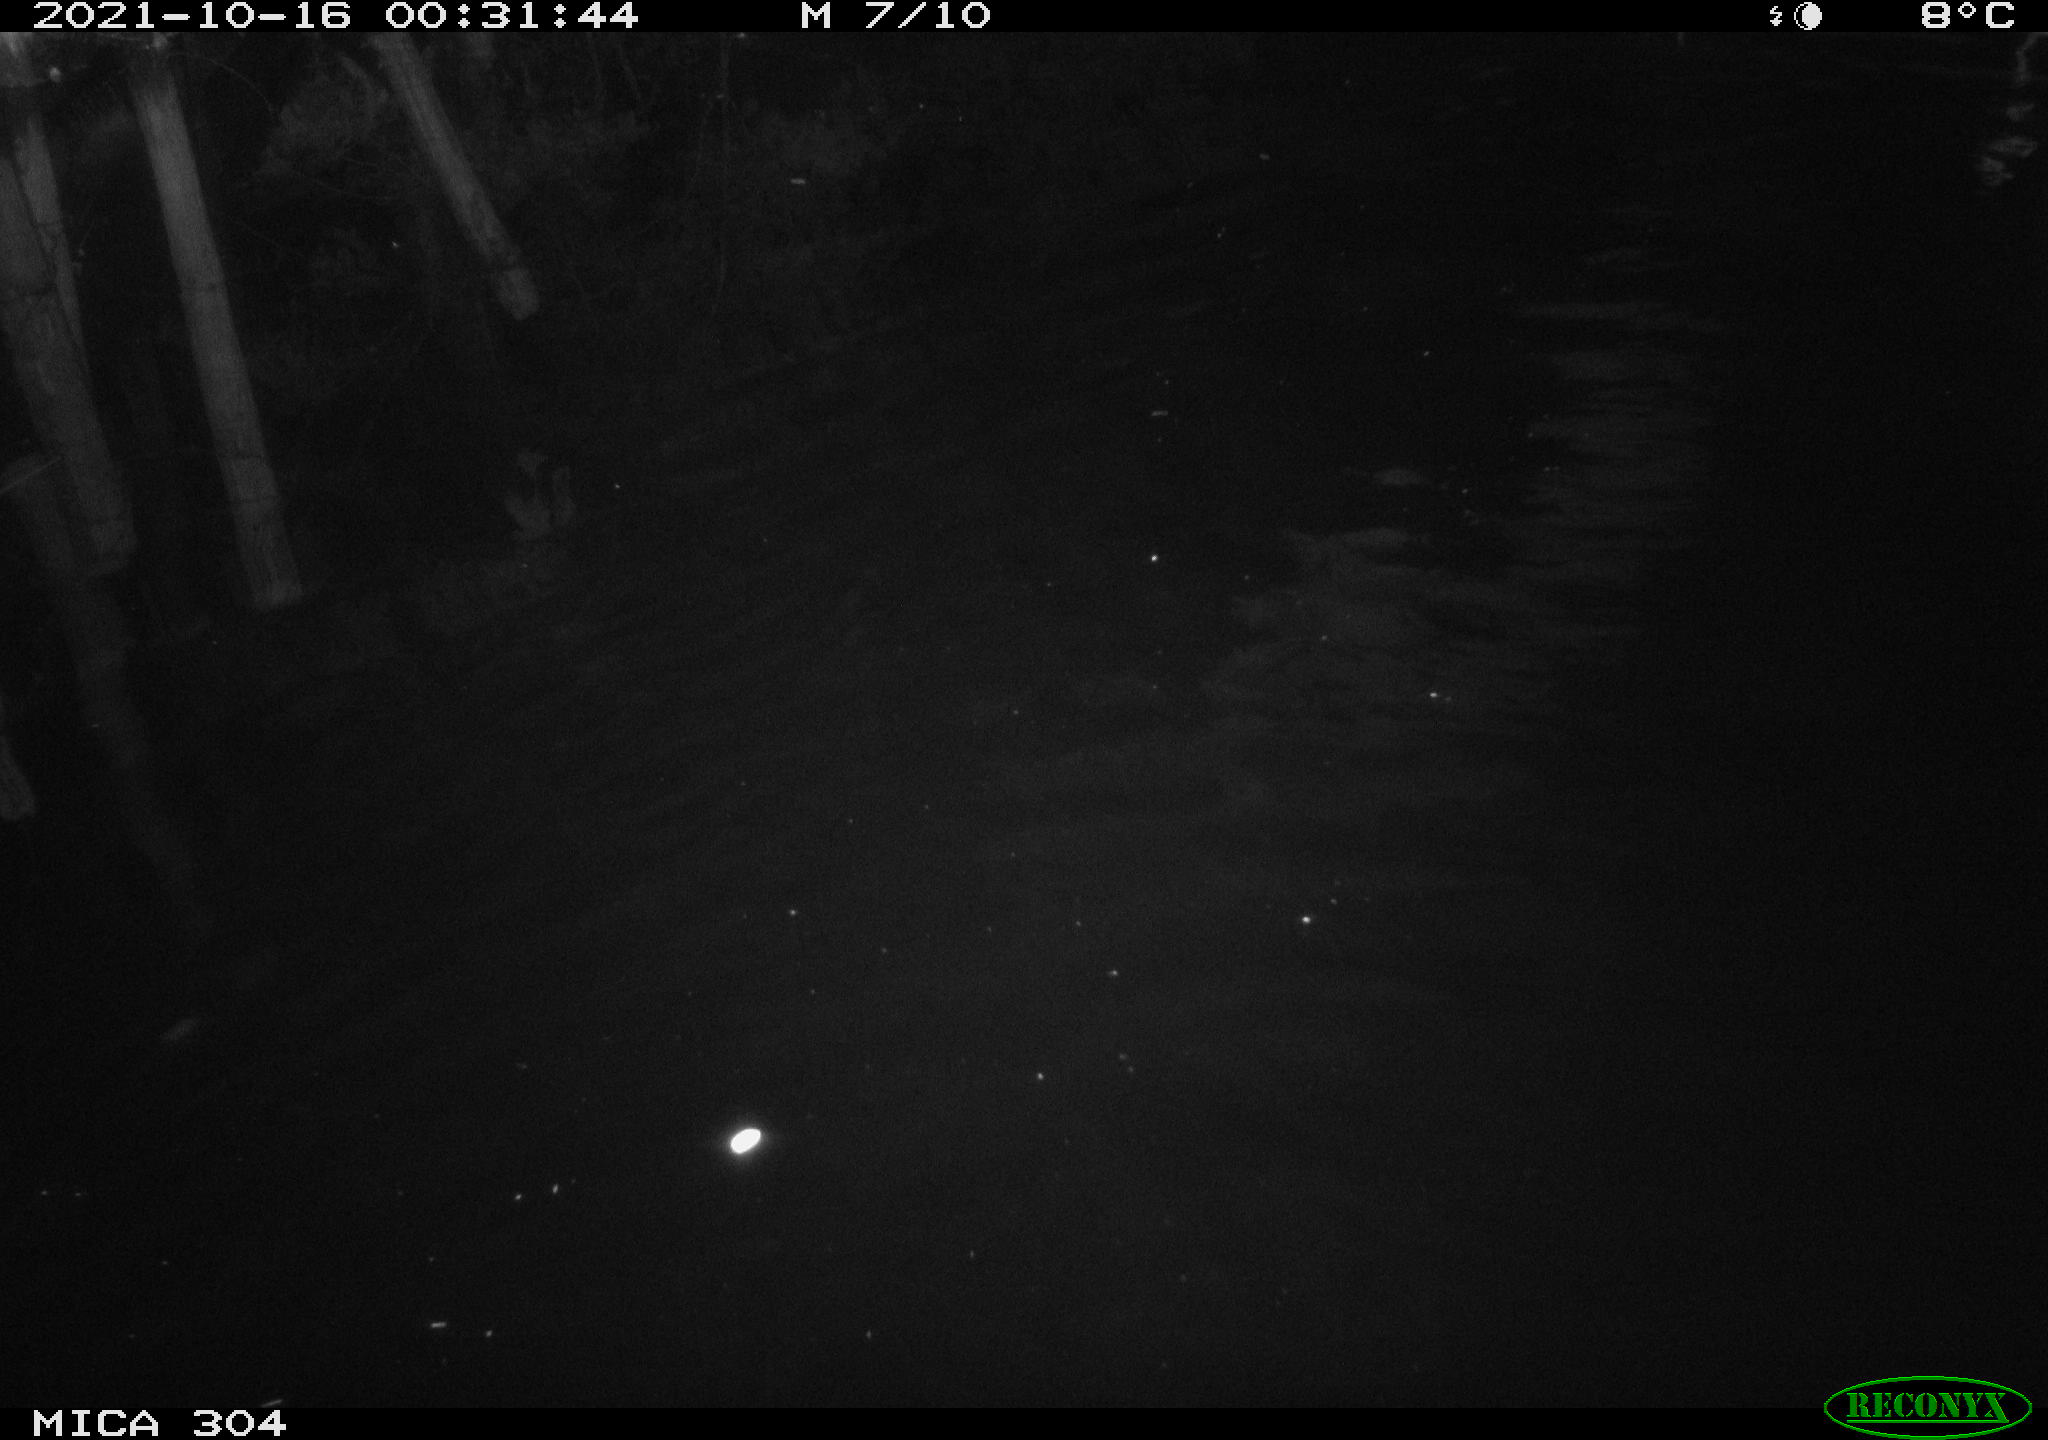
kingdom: Animalia
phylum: Chordata
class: Mammalia
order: Rodentia
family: Cricetidae
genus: Ondatra
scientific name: Ondatra zibethicus
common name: Muskrat
